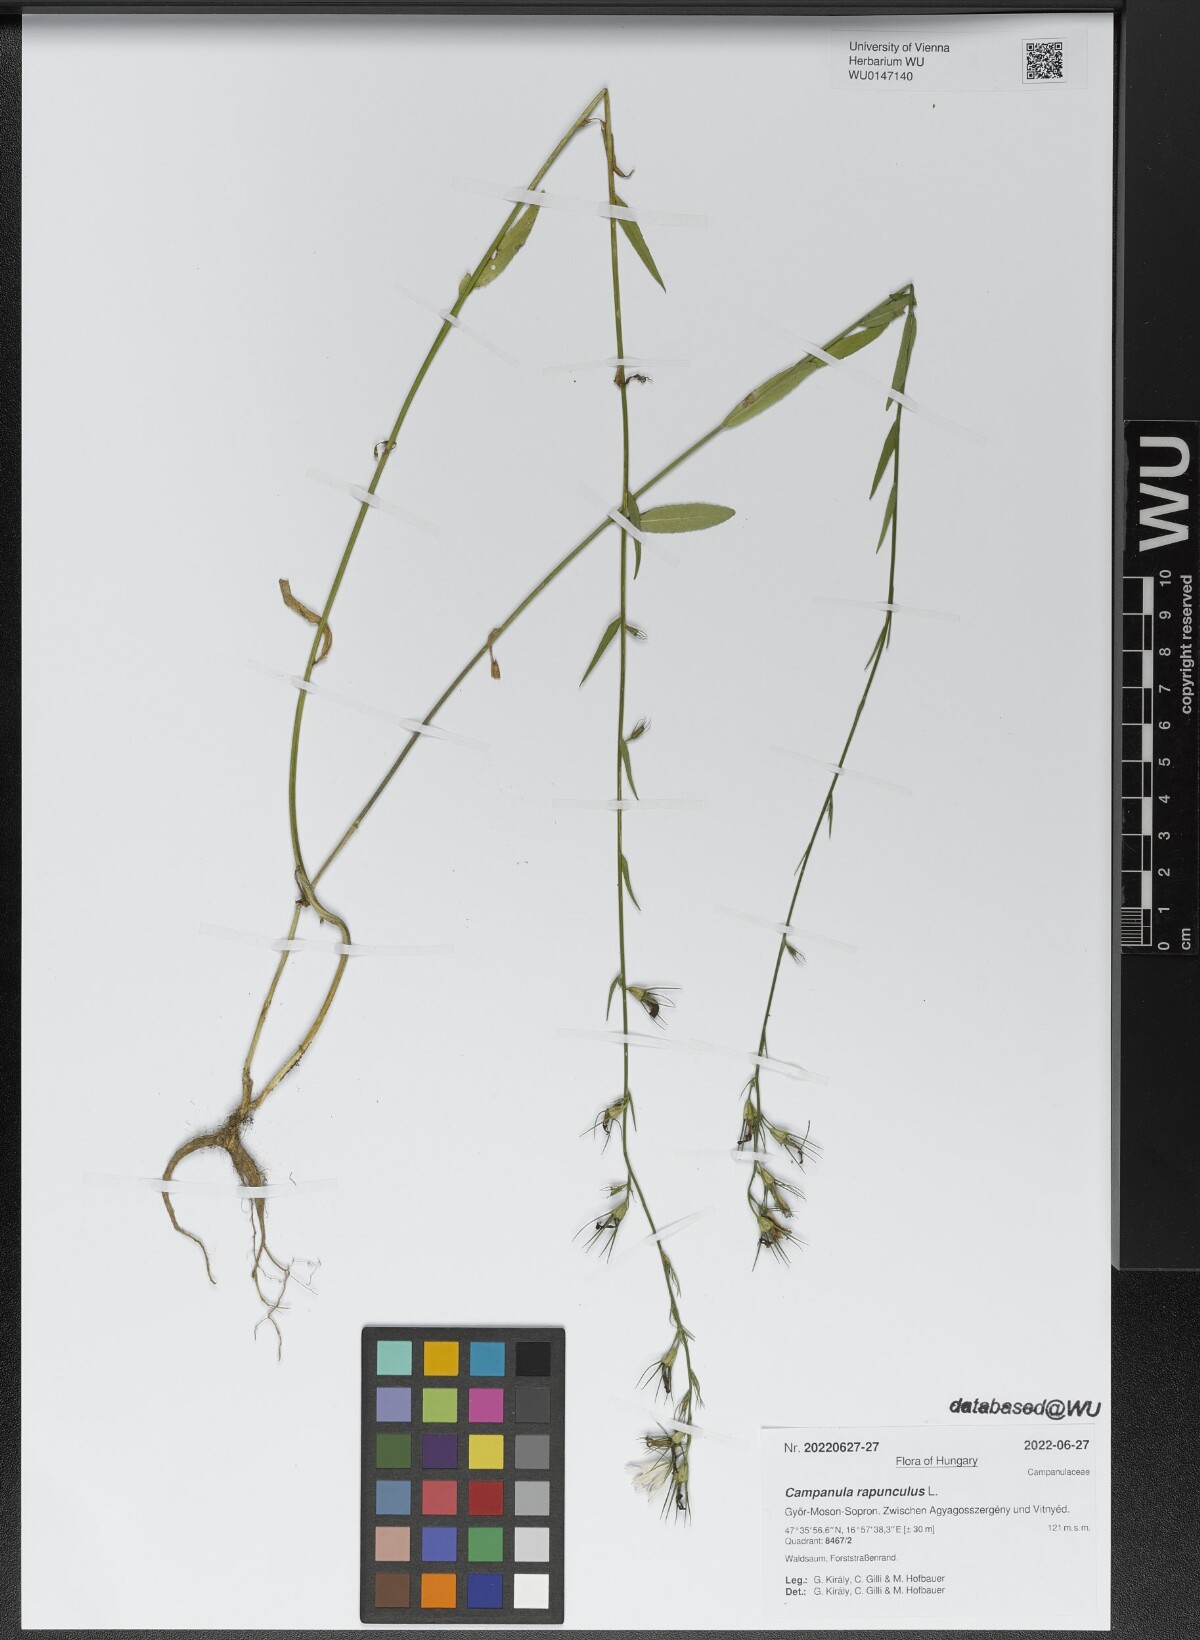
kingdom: Plantae
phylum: Tracheophyta
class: Magnoliopsida
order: Asterales
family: Campanulaceae
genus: Campanula
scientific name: Campanula rapunculus
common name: Rampion bellflower
